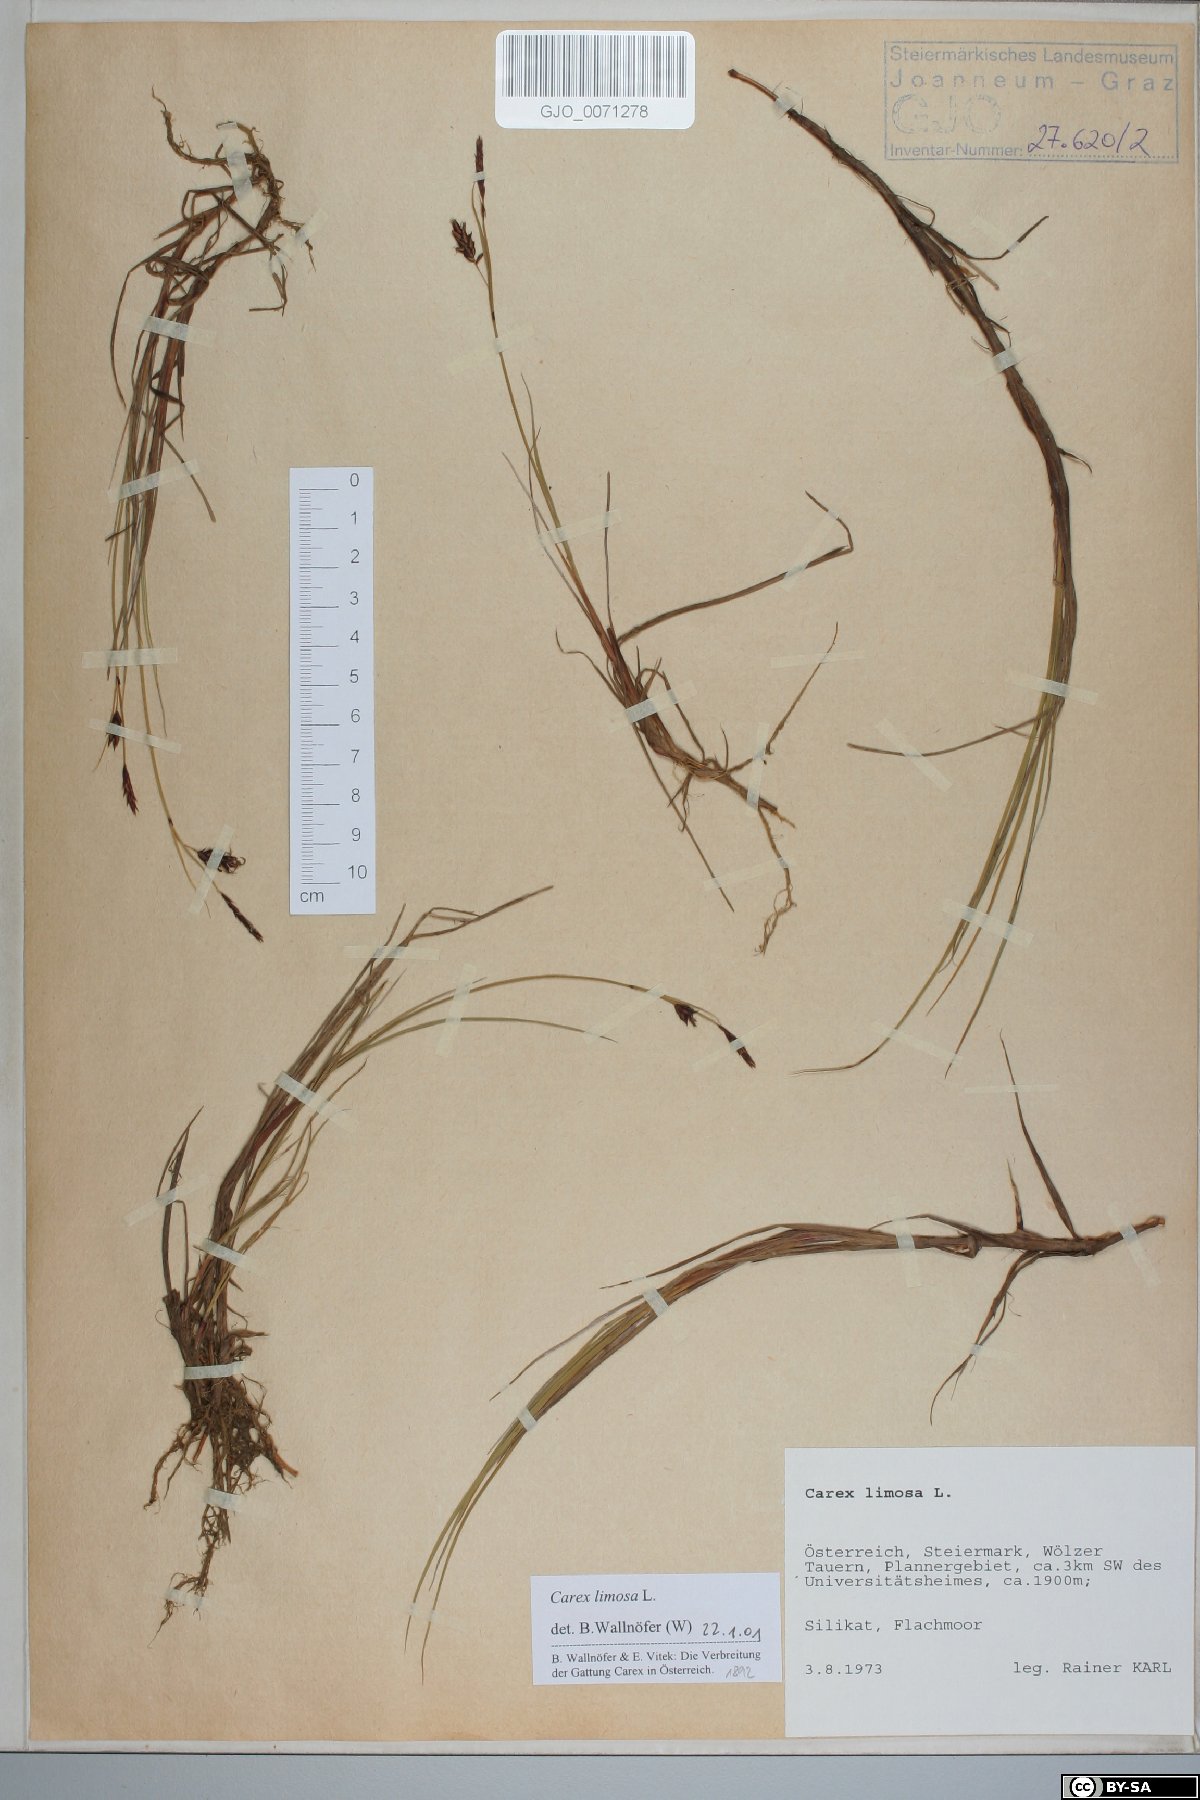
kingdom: Plantae
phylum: Tracheophyta
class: Liliopsida
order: Poales
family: Cyperaceae
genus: Carex
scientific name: Carex limosa
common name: Bog sedge
